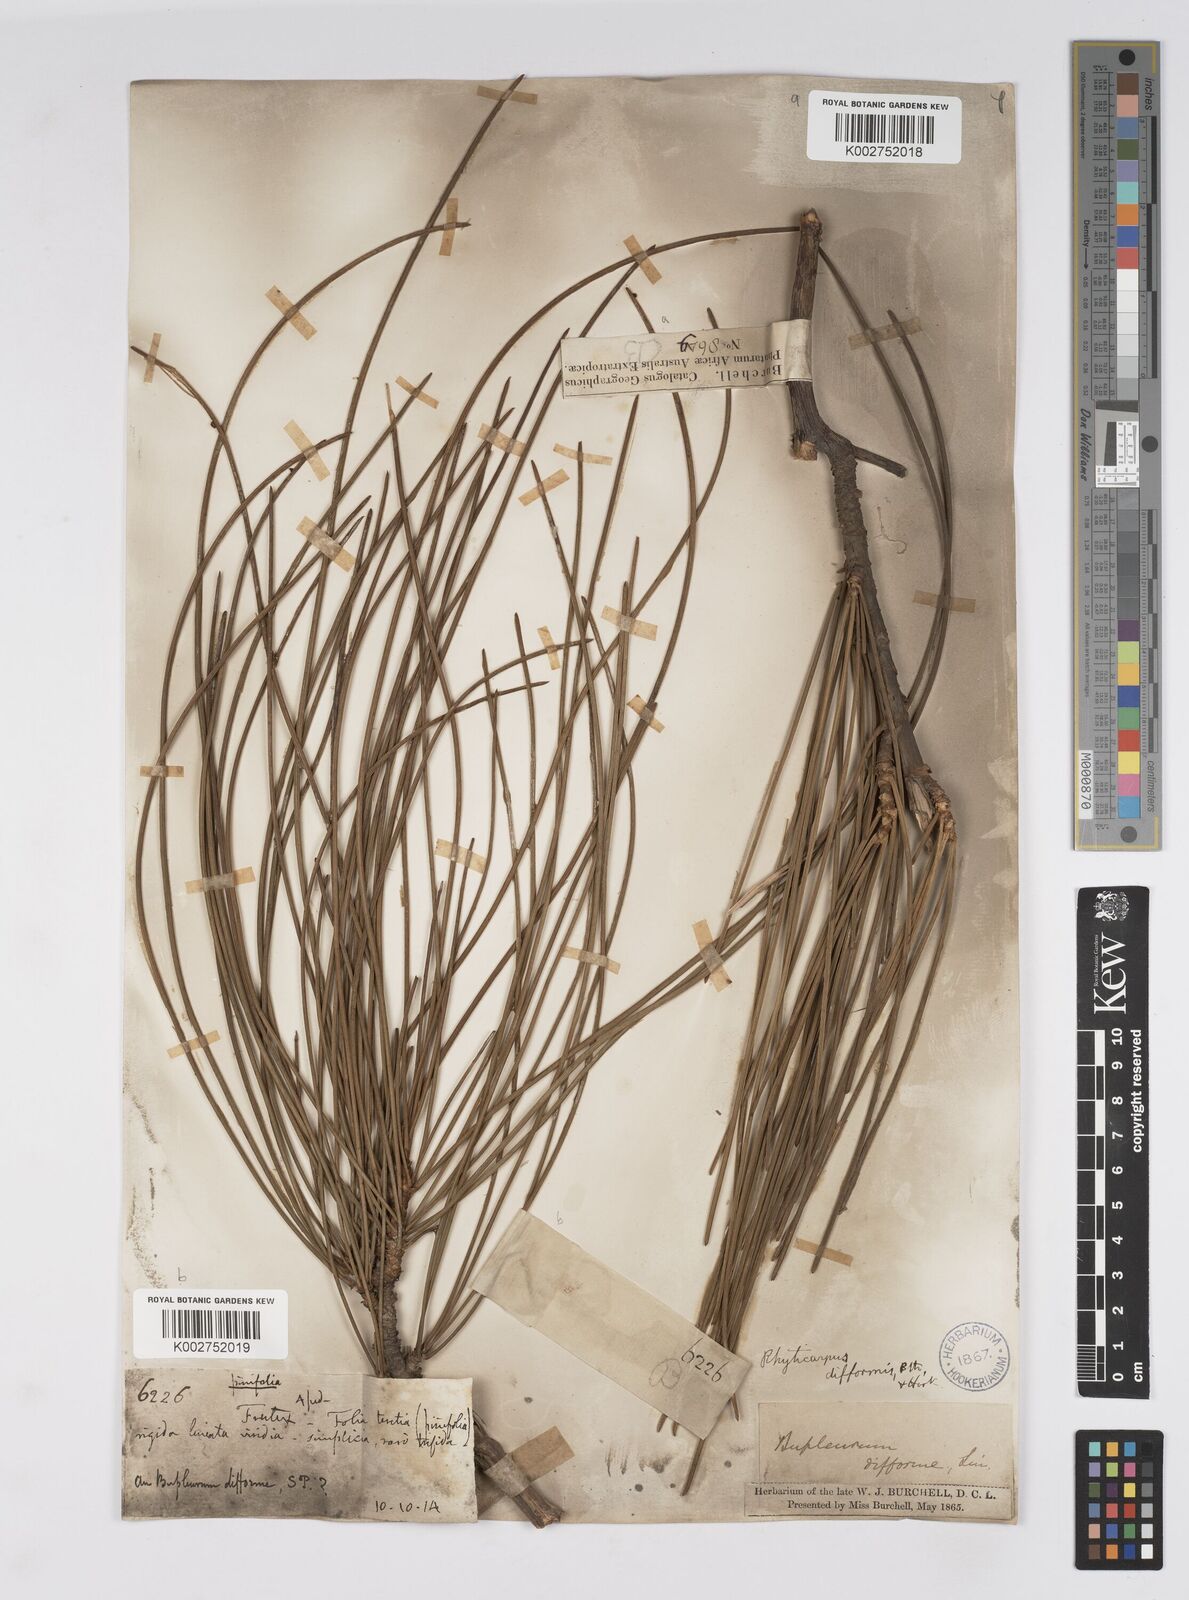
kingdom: Plantae
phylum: Tracheophyta
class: Magnoliopsida
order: Apiales
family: Apiaceae
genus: Anginon
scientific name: Anginon difforme
